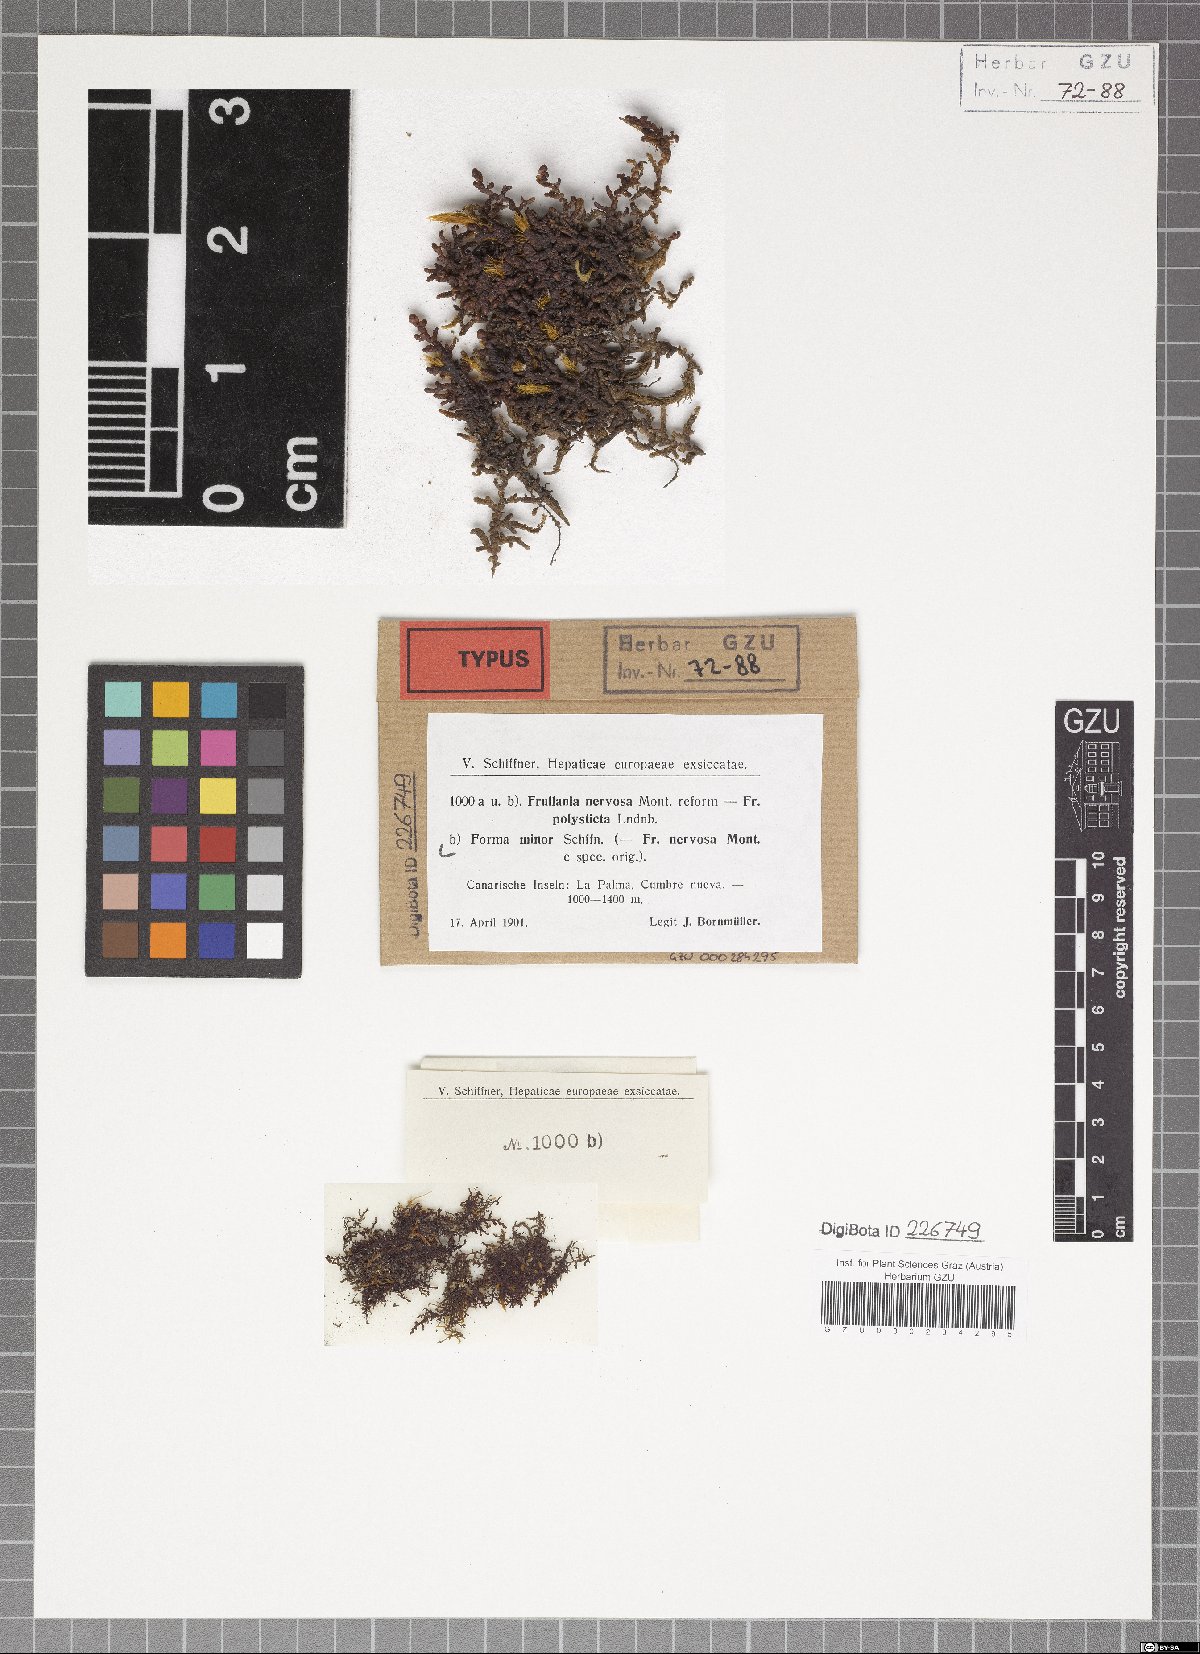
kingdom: Plantae
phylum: Marchantiophyta
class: Jungermanniopsida
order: Porellales
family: Frullaniaceae
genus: Frullania
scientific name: Frullania tamarisci
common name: Tamarisk scalewort
